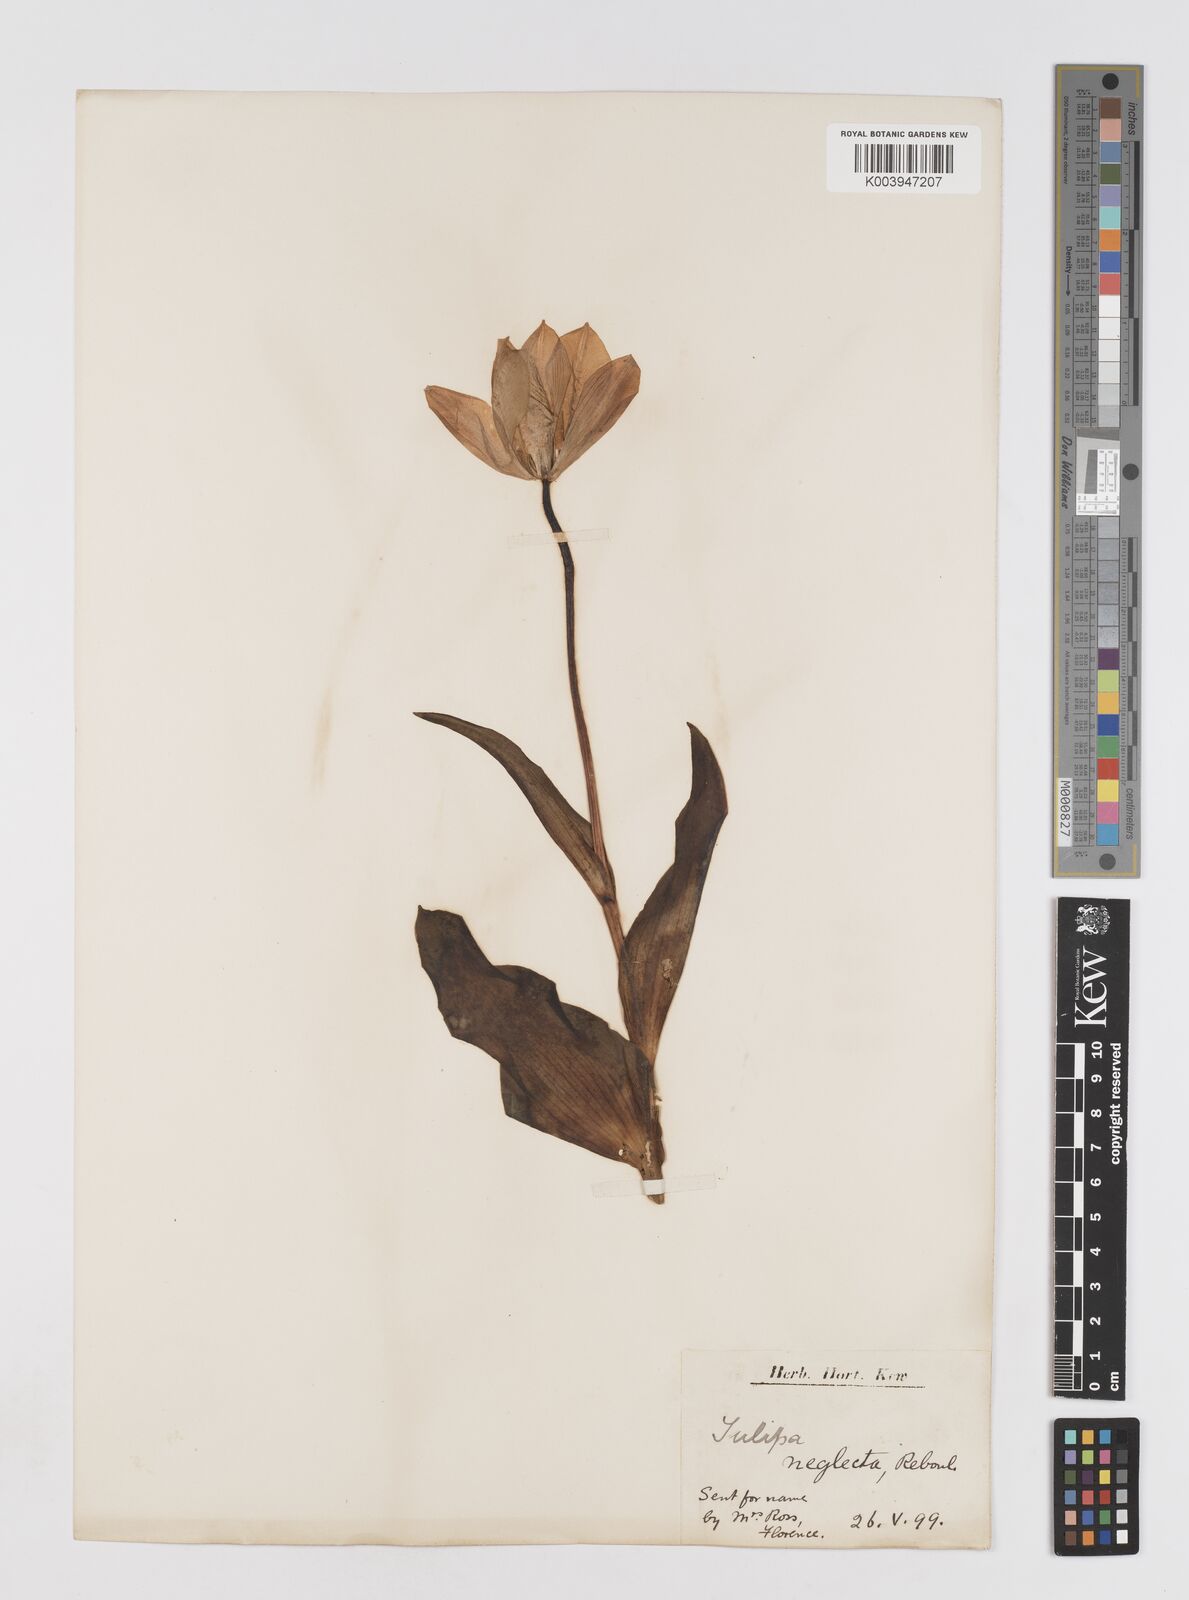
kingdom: Plantae
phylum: Tracheophyta
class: Liliopsida
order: Liliales
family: Liliaceae
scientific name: Liliaceae
